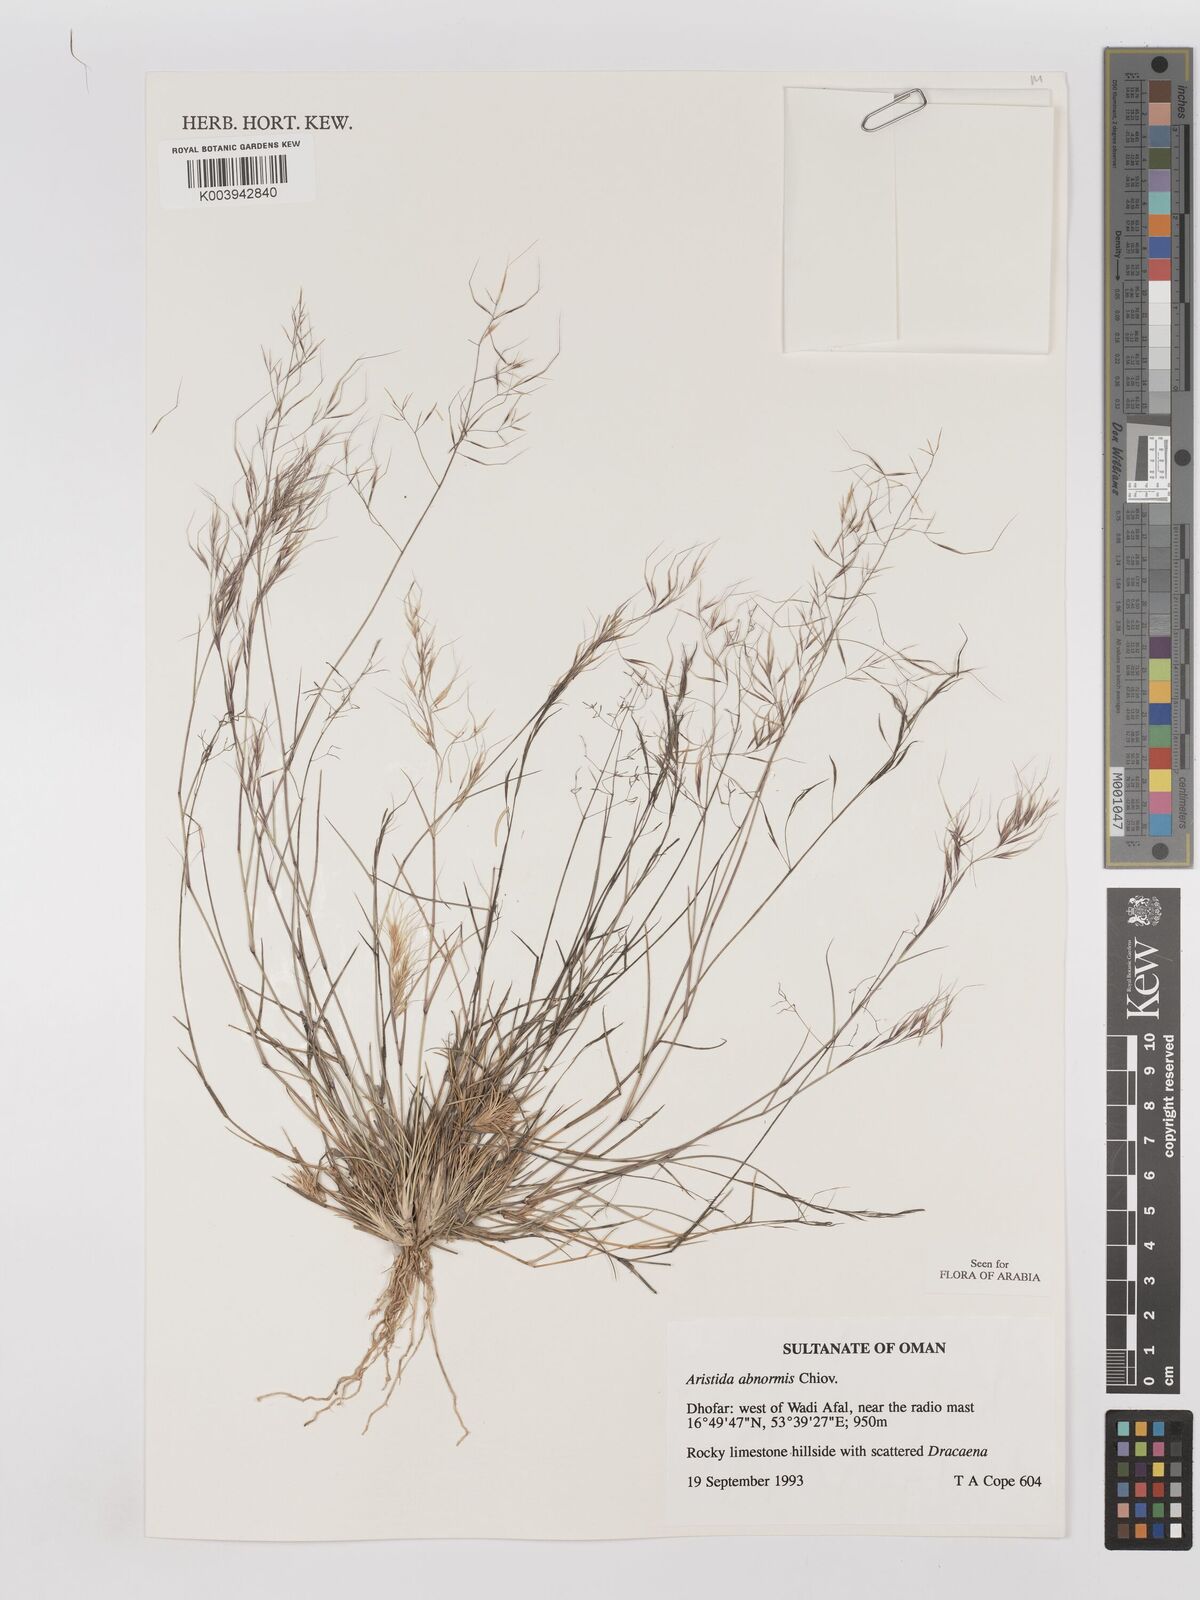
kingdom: Plantae
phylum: Tracheophyta
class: Liliopsida
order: Poales
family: Poaceae
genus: Aristida
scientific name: Aristida abnormis
